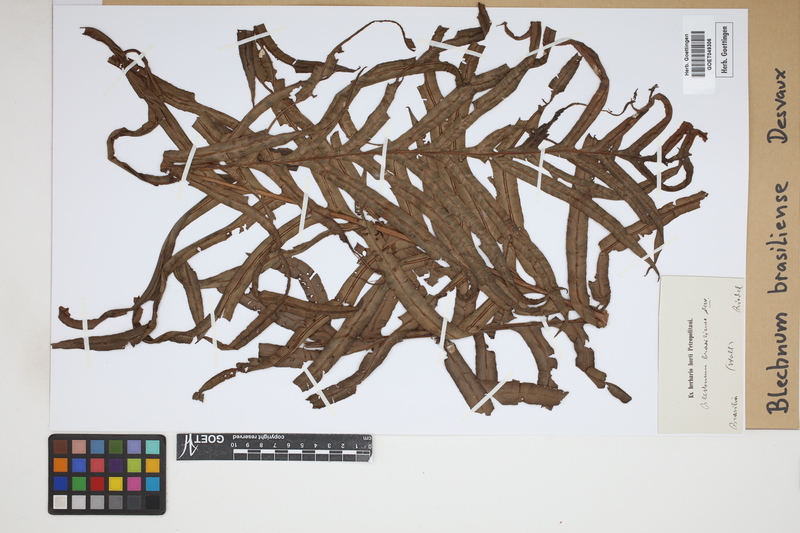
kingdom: Plantae
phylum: Tracheophyta
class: Polypodiopsida
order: Polypodiales
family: Blechnaceae
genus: Neoblechnum
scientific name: Neoblechnum brasiliense
